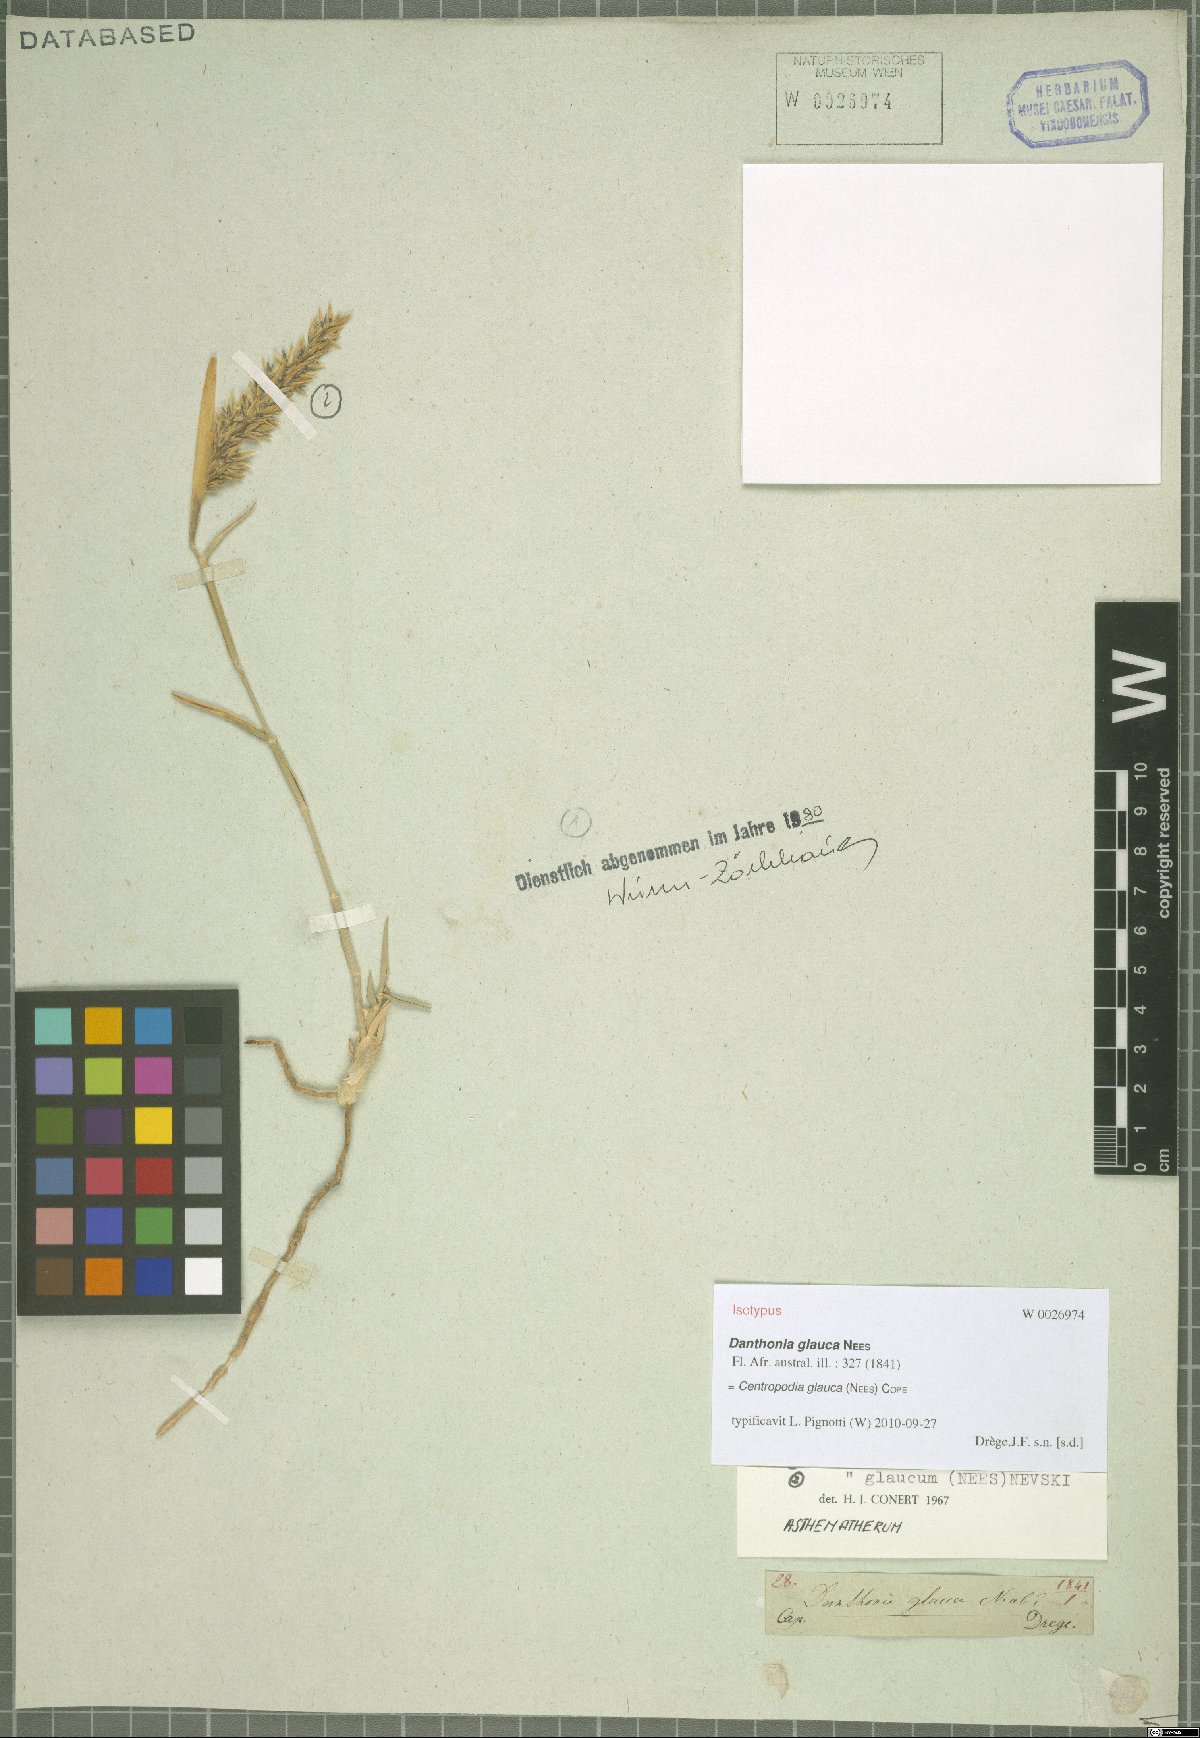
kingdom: Plantae
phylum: Tracheophyta
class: Liliopsida
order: Poales
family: Poaceae
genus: Centropodia
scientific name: Centropodia glauca
